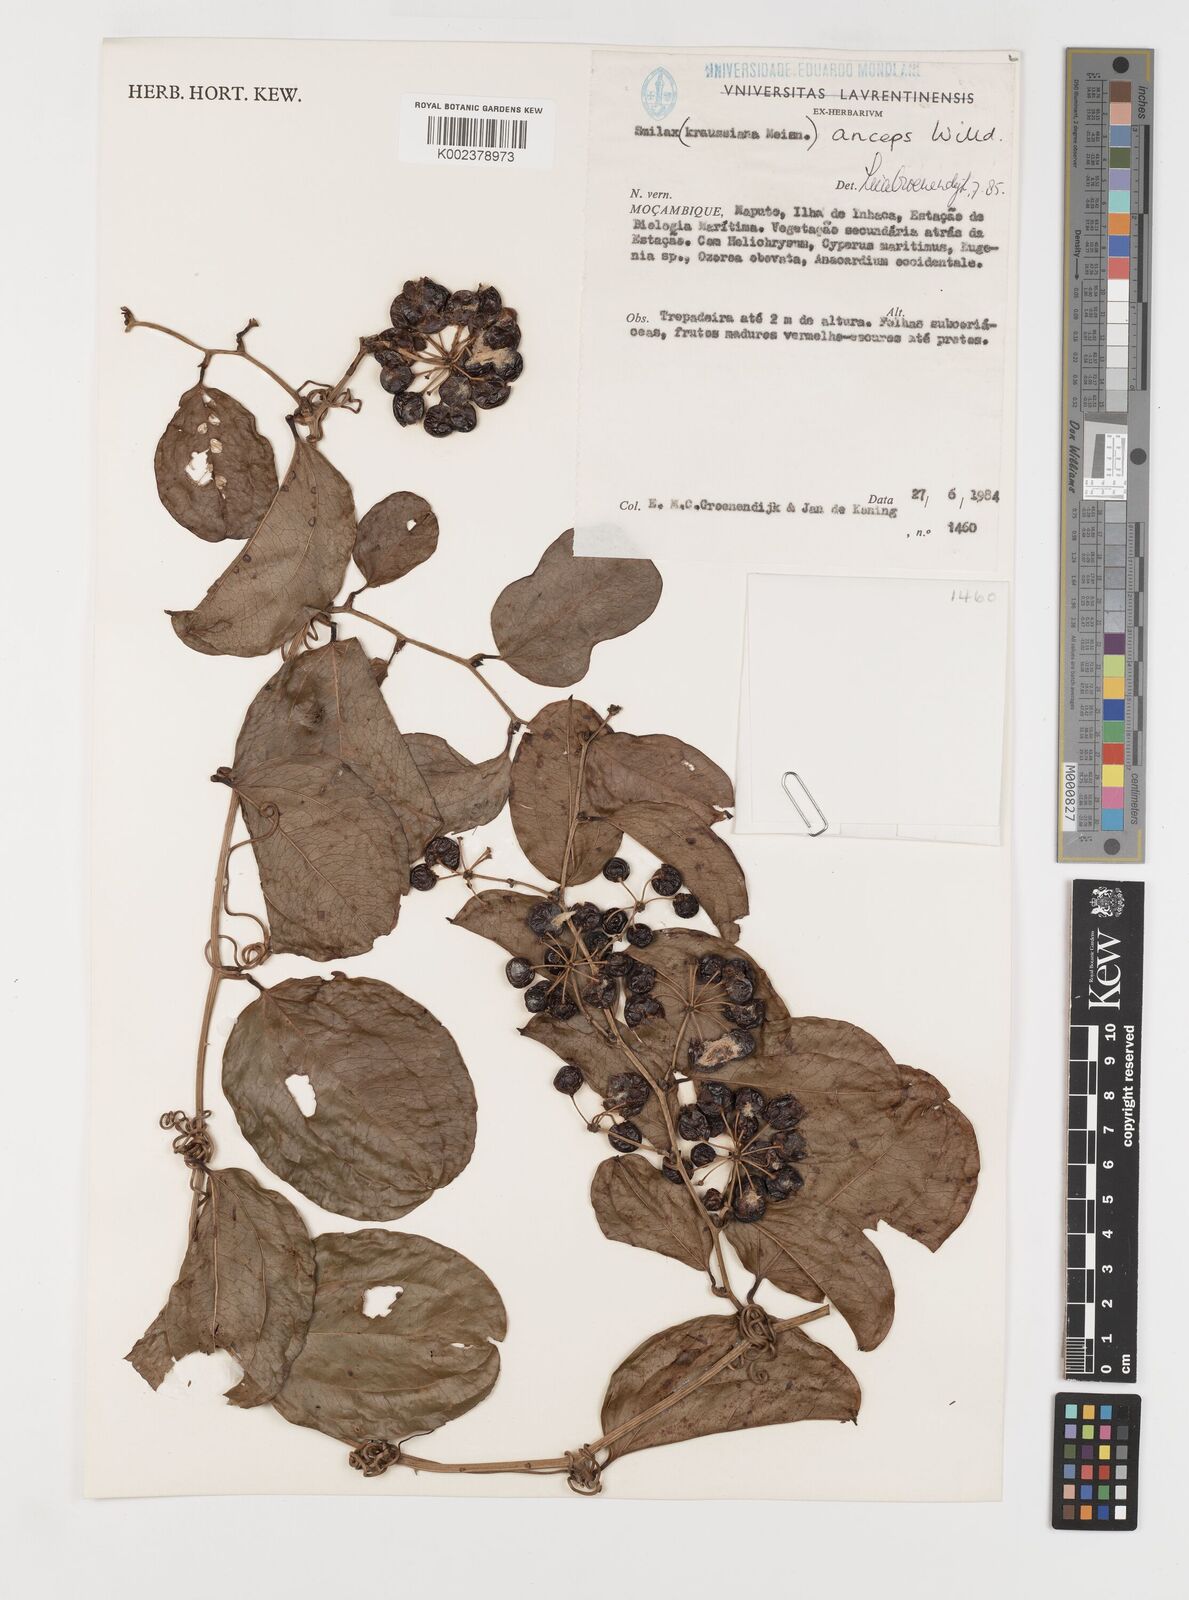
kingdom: Plantae
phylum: Tracheophyta
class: Liliopsida
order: Liliales
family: Smilacaceae
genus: Smilax
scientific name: Smilax anceps
